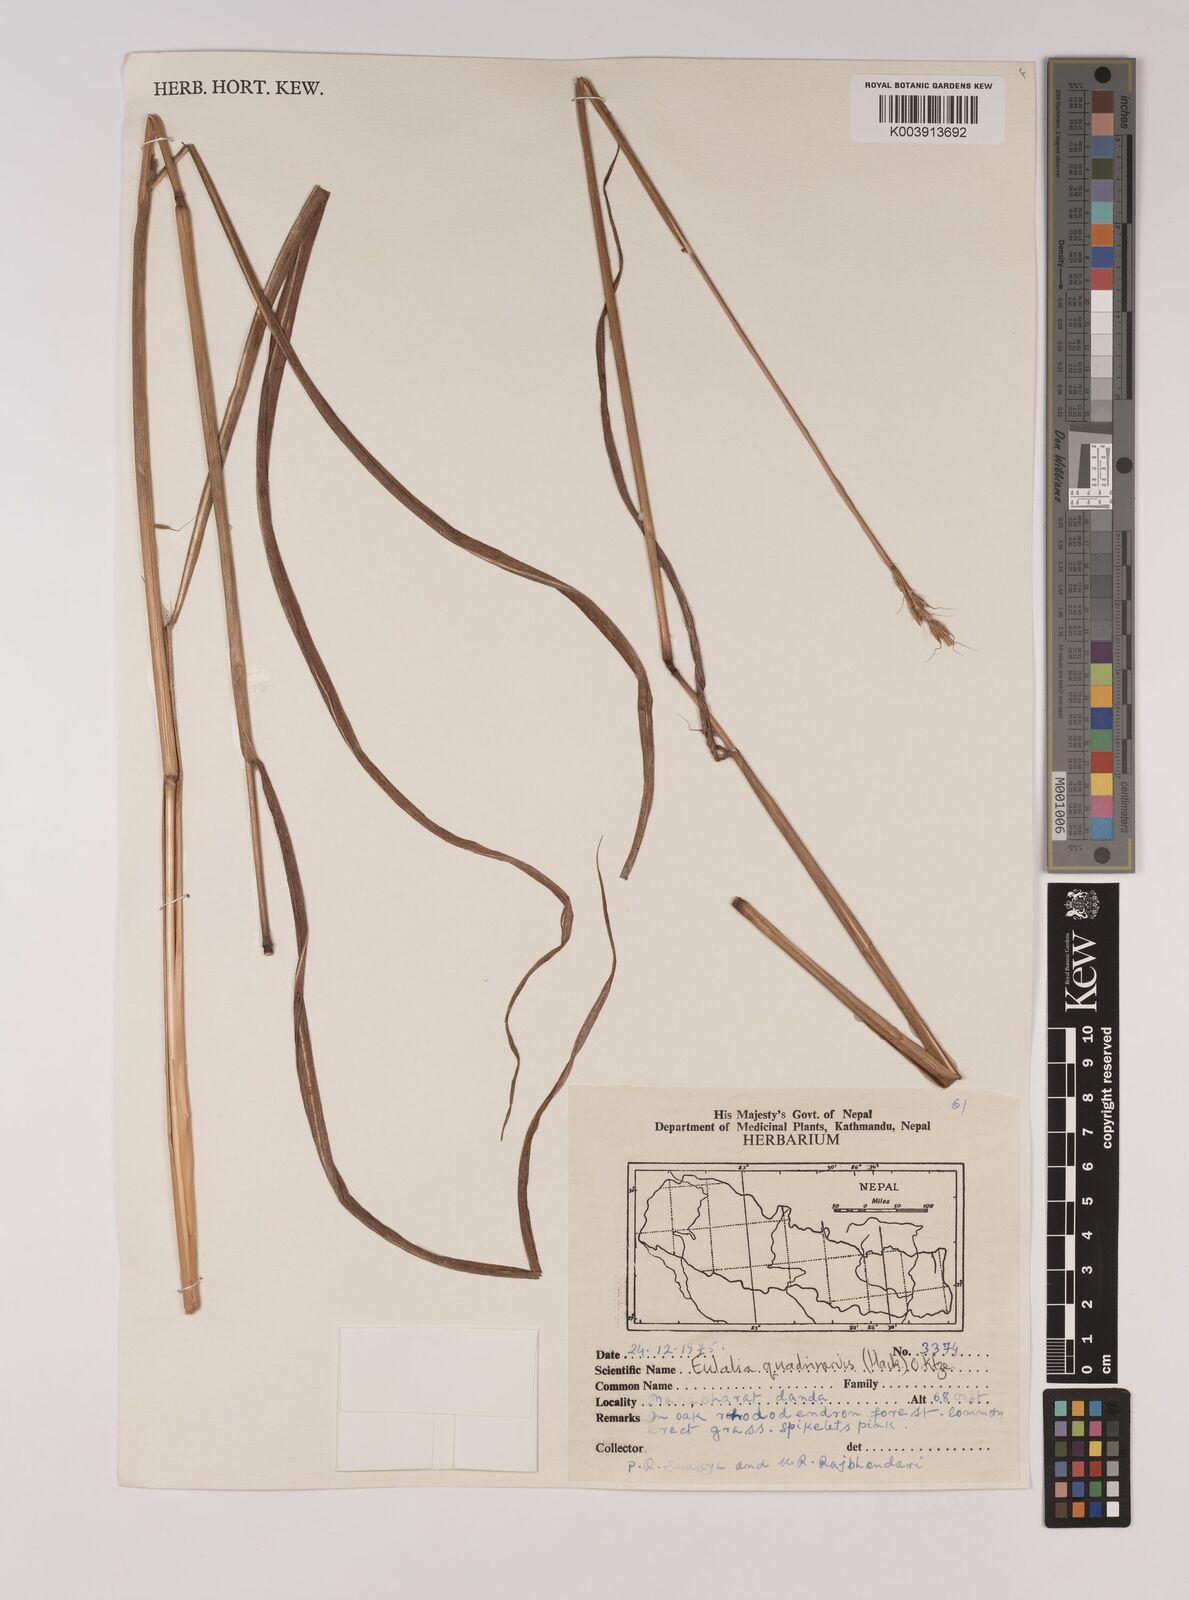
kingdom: Plantae
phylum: Tracheophyta
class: Liliopsida
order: Poales
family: Poaceae
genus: Pseudopogonatherum
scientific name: Pseudopogonatherum quadrinerve
